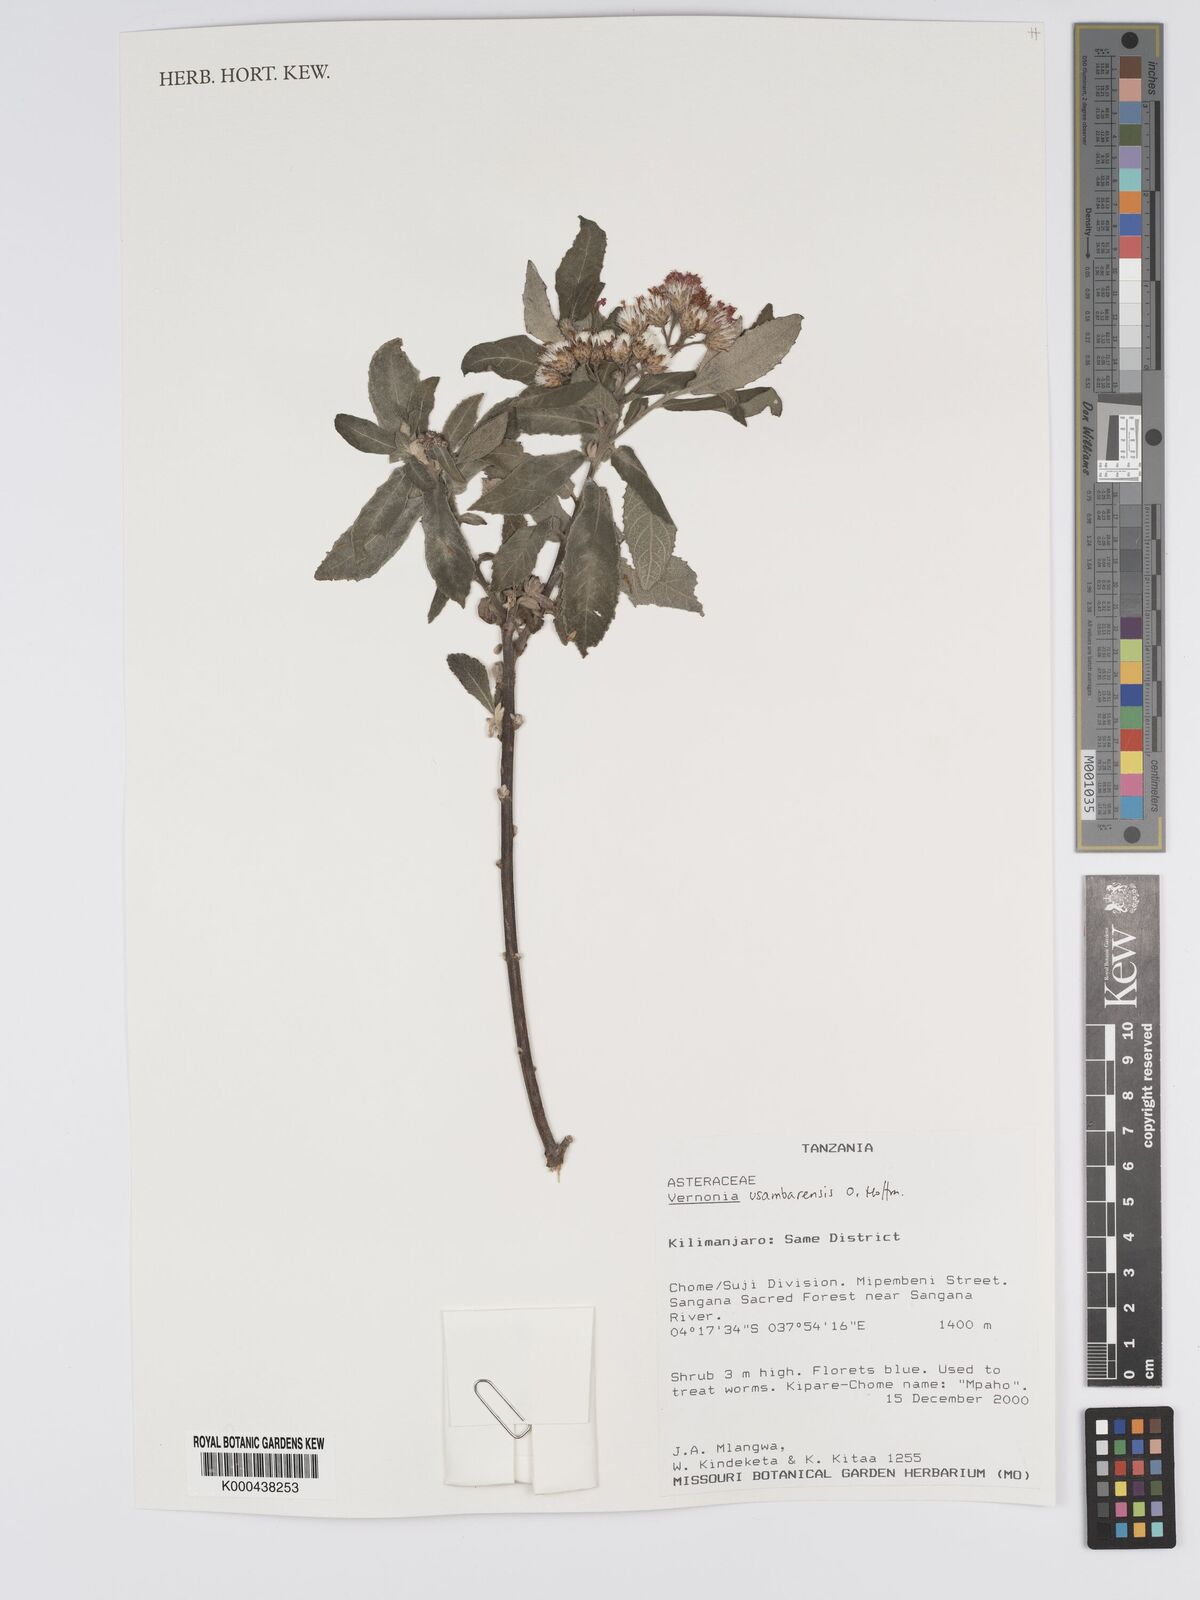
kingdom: Plantae
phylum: Tracheophyta
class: Magnoliopsida
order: Asterales
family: Asteraceae
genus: Jeffreycia
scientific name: Jeffreycia usambarensis
